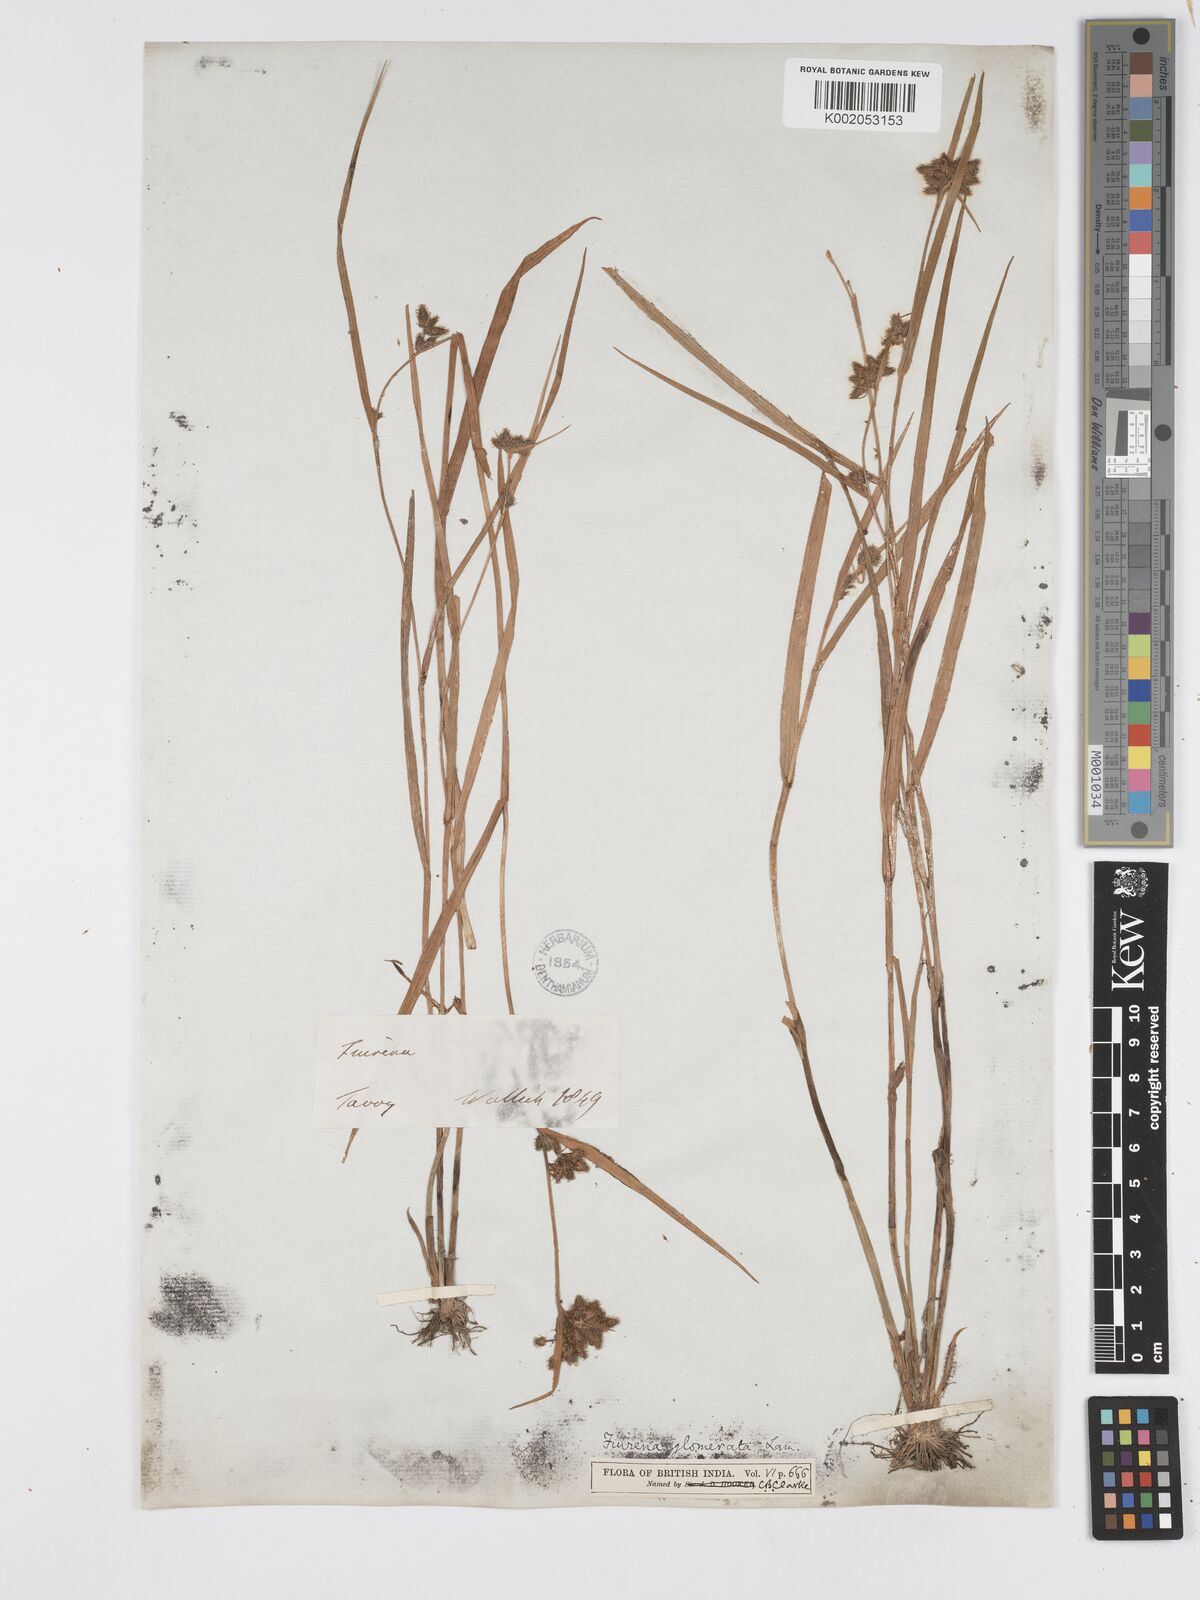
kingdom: Plantae
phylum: Tracheophyta
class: Liliopsida
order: Poales
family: Cyperaceae
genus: Fuirena
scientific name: Fuirena ciliaris
